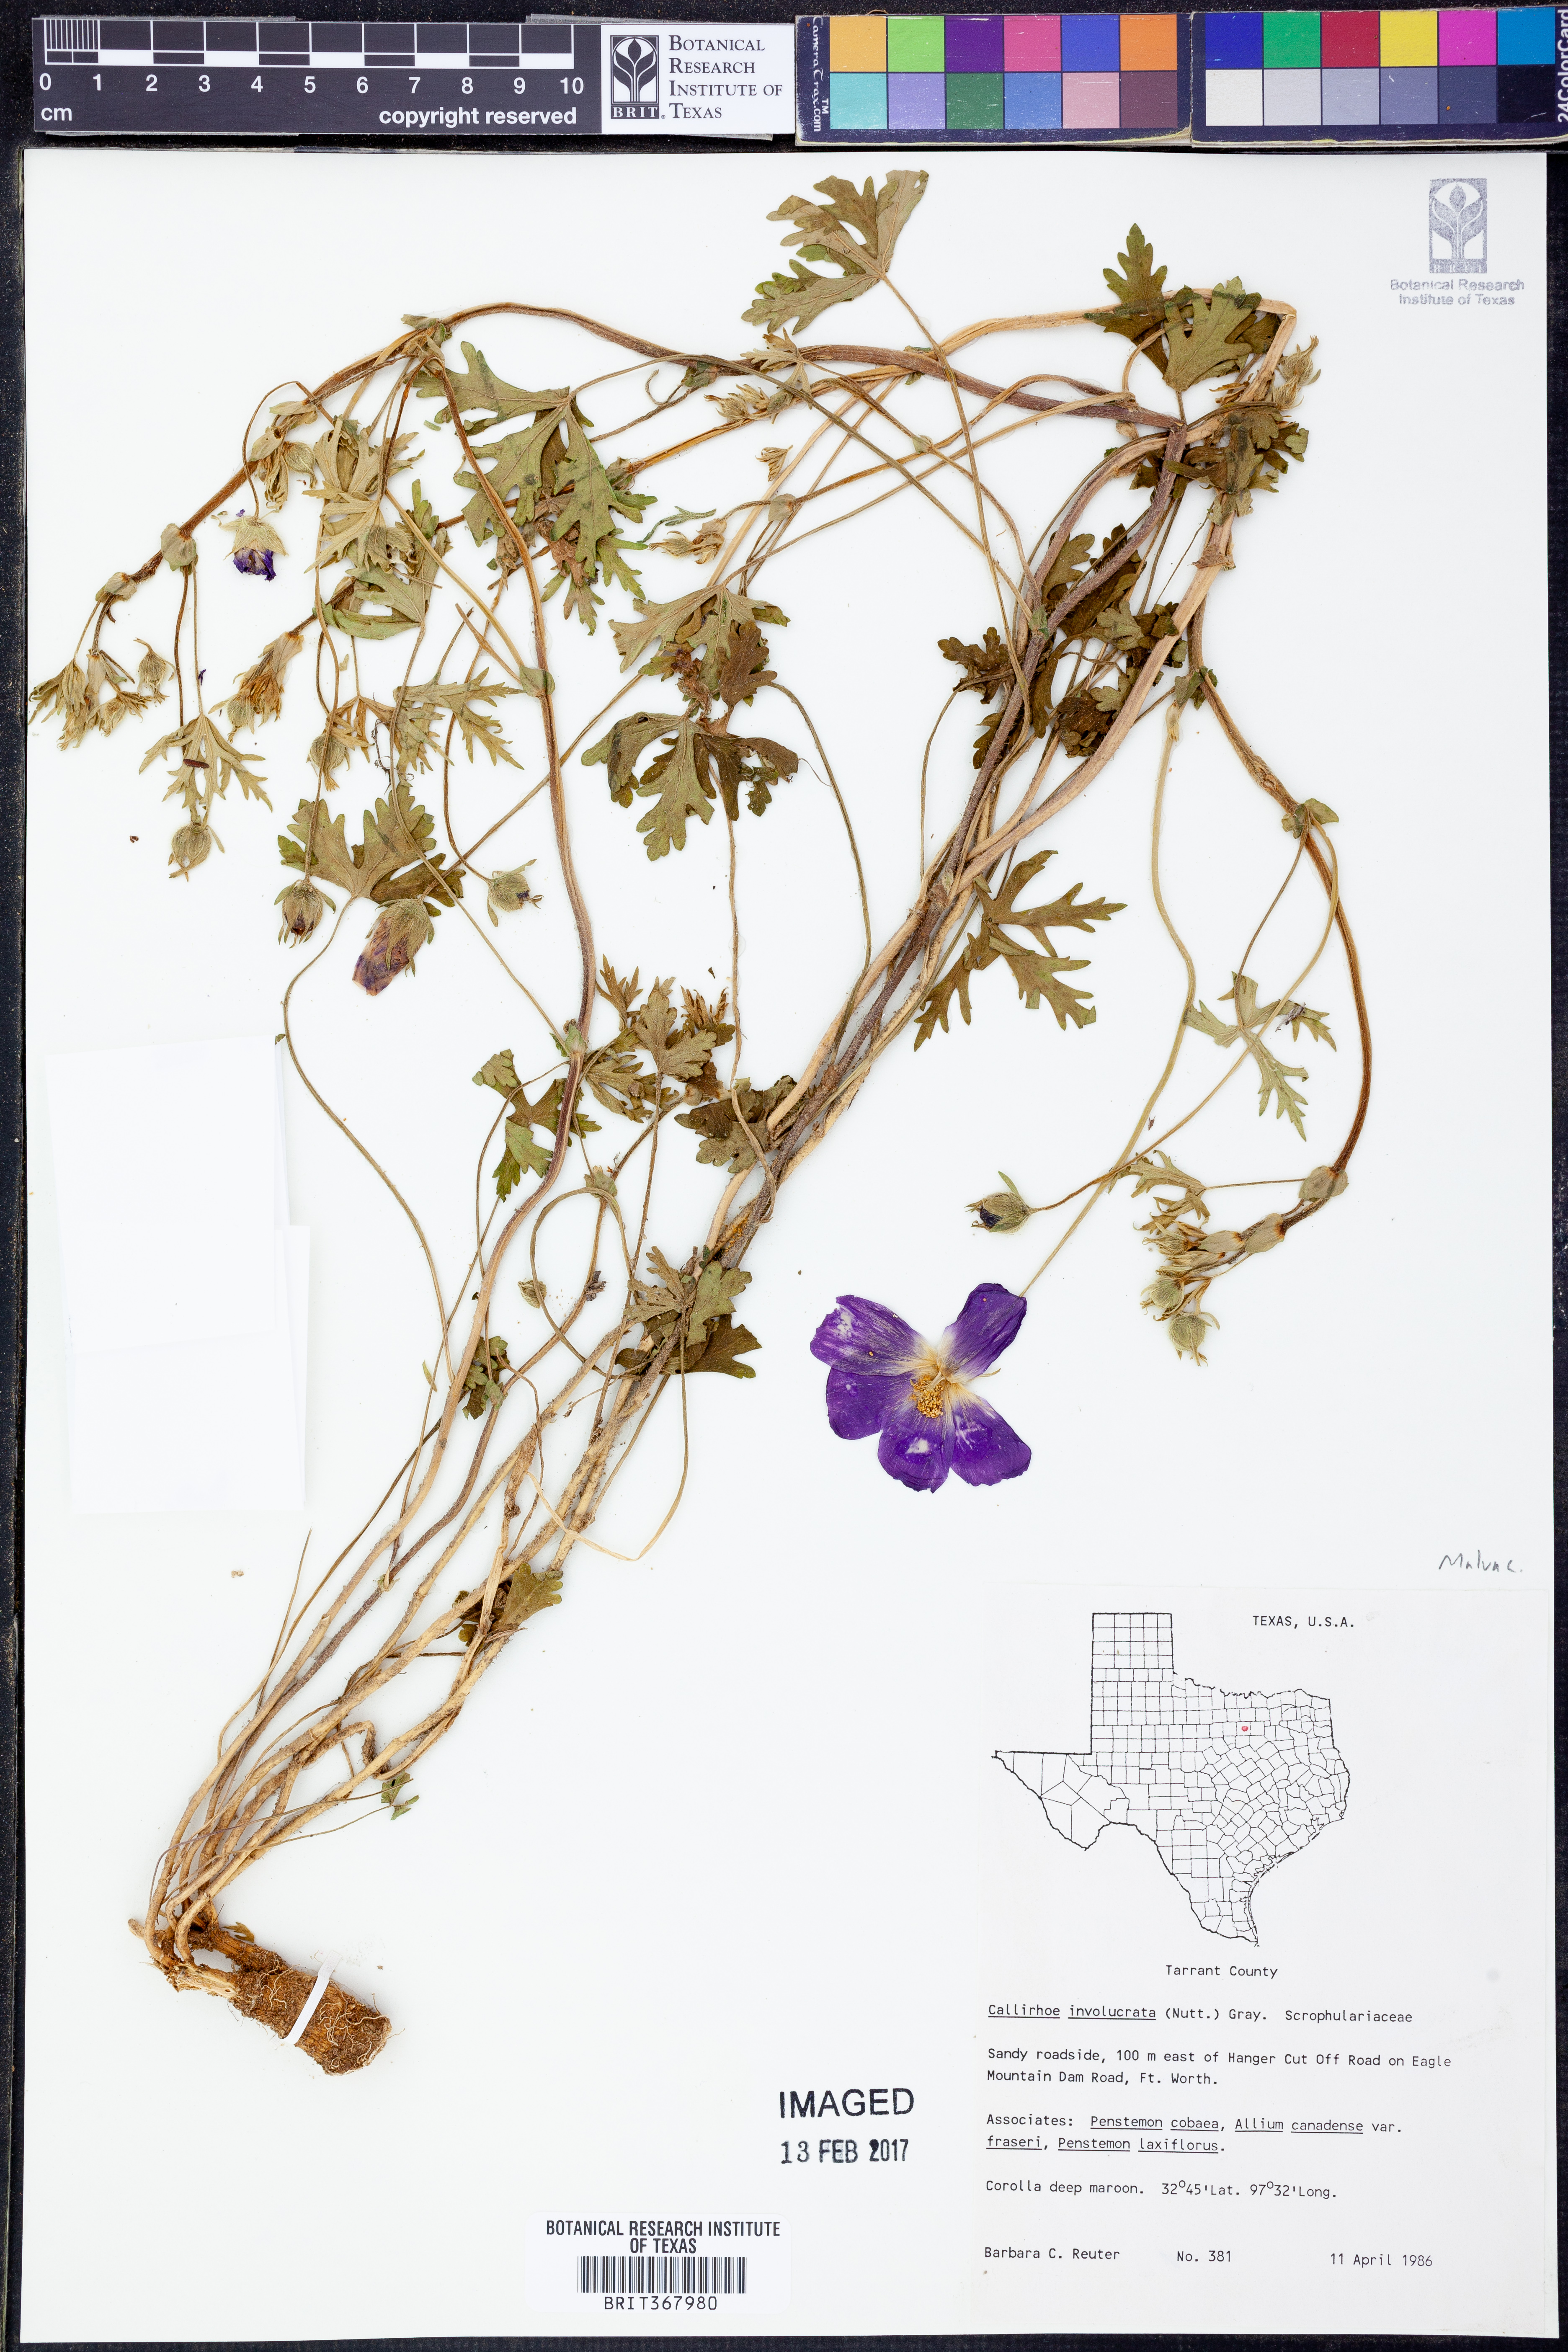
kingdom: Plantae
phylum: Tracheophyta
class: Magnoliopsida
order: Malvales
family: Malvaceae
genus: Callirhoe
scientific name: Callirhoe involucrata
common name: Purple poppy-mallow
